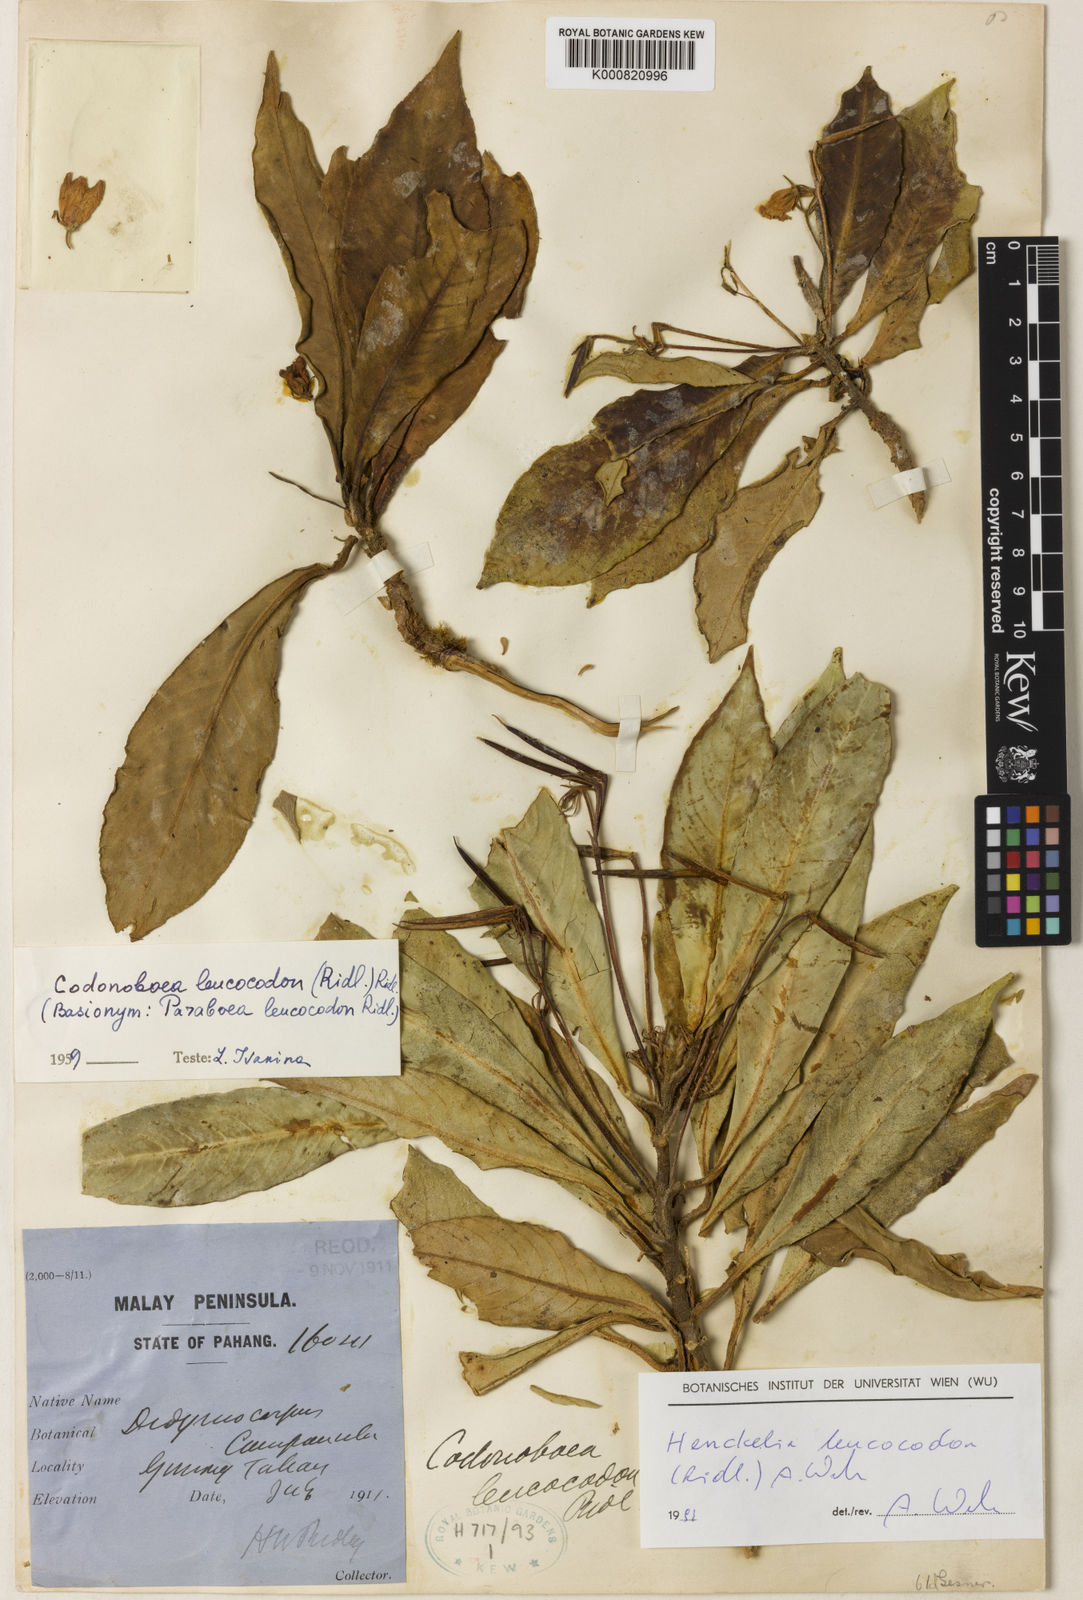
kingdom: Plantae
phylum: Tracheophyta
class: Magnoliopsida
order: Lamiales
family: Gesneriaceae
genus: Codonoboea
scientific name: Codonoboea leucocodon
